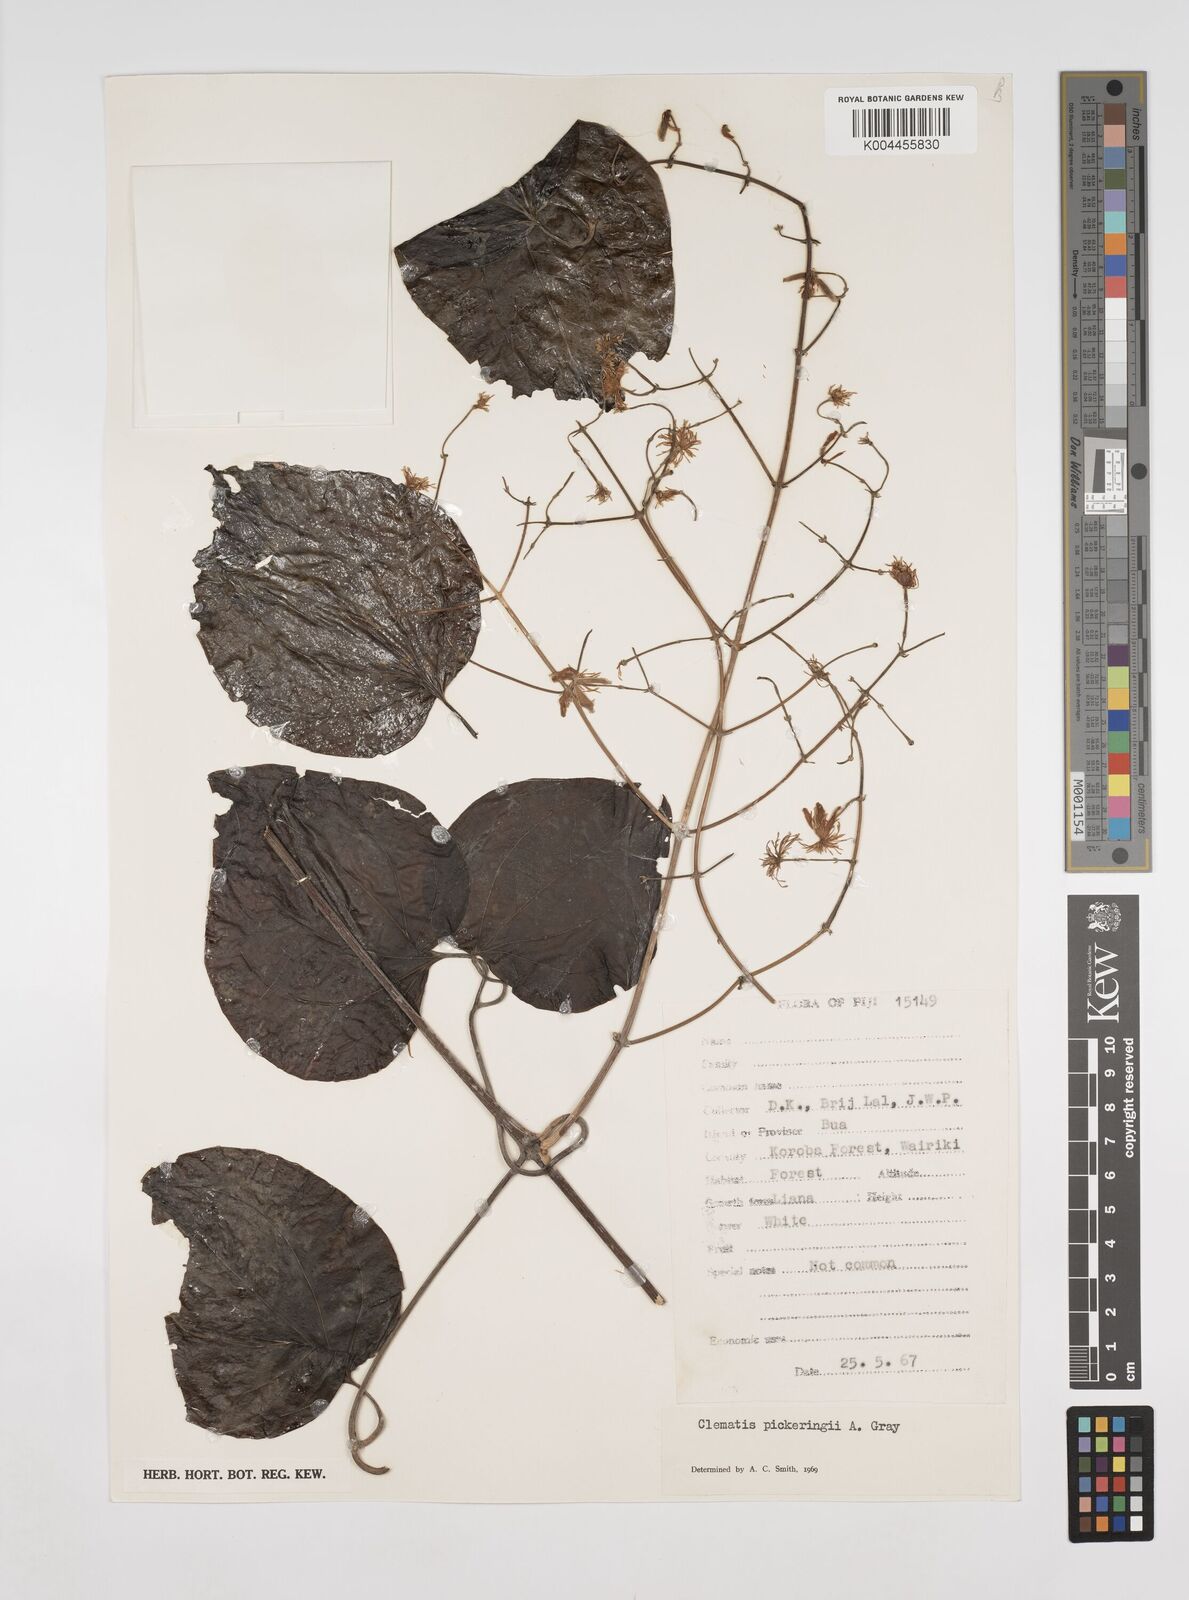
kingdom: Plantae
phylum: Tracheophyta
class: Magnoliopsida
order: Ranunculales
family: Ranunculaceae
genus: Clematis
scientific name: Clematis pickeringii
